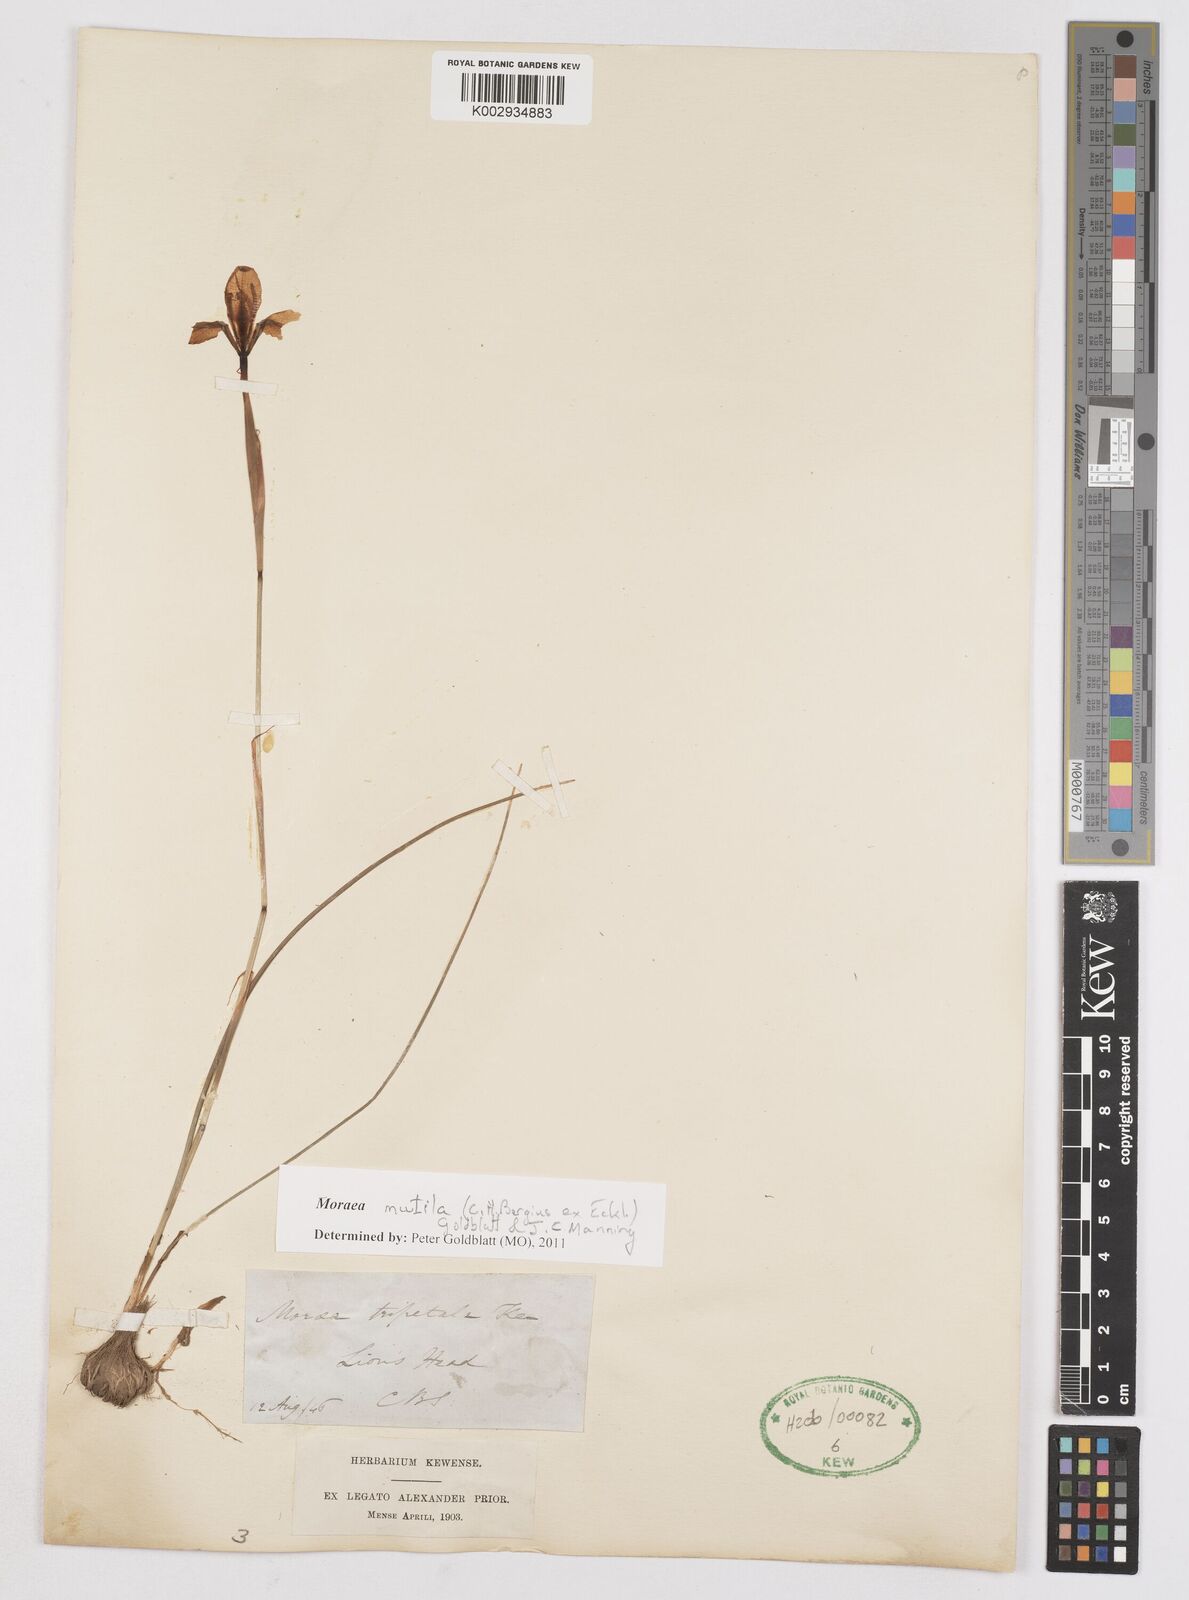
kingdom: Plantae
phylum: Tracheophyta
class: Liliopsida
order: Asparagales
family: Iridaceae
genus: Moraea
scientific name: Moraea punctata
